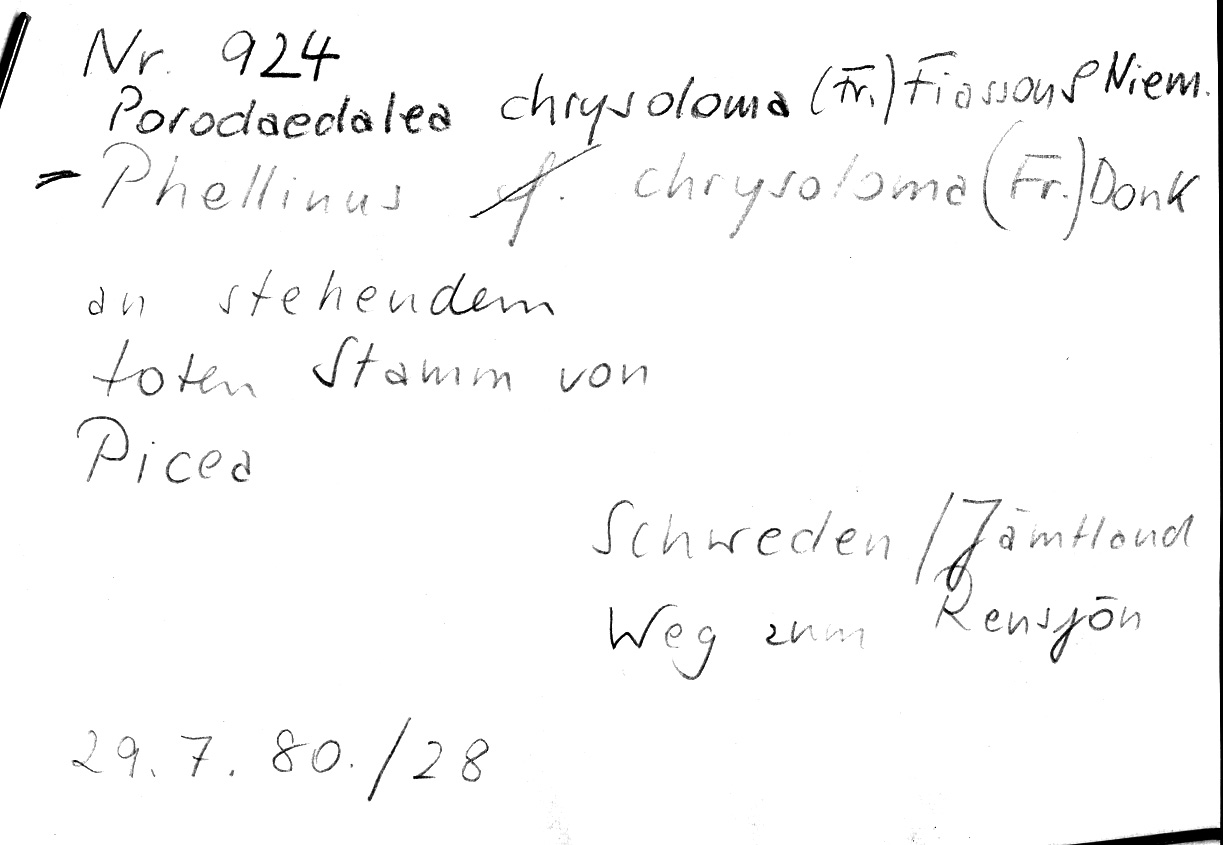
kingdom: Fungi
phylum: Basidiomycota
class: Agaricomycetes
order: Hymenochaetales
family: Hymenochaetaceae
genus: Phellinus
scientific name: Phellinus chrysoloma
